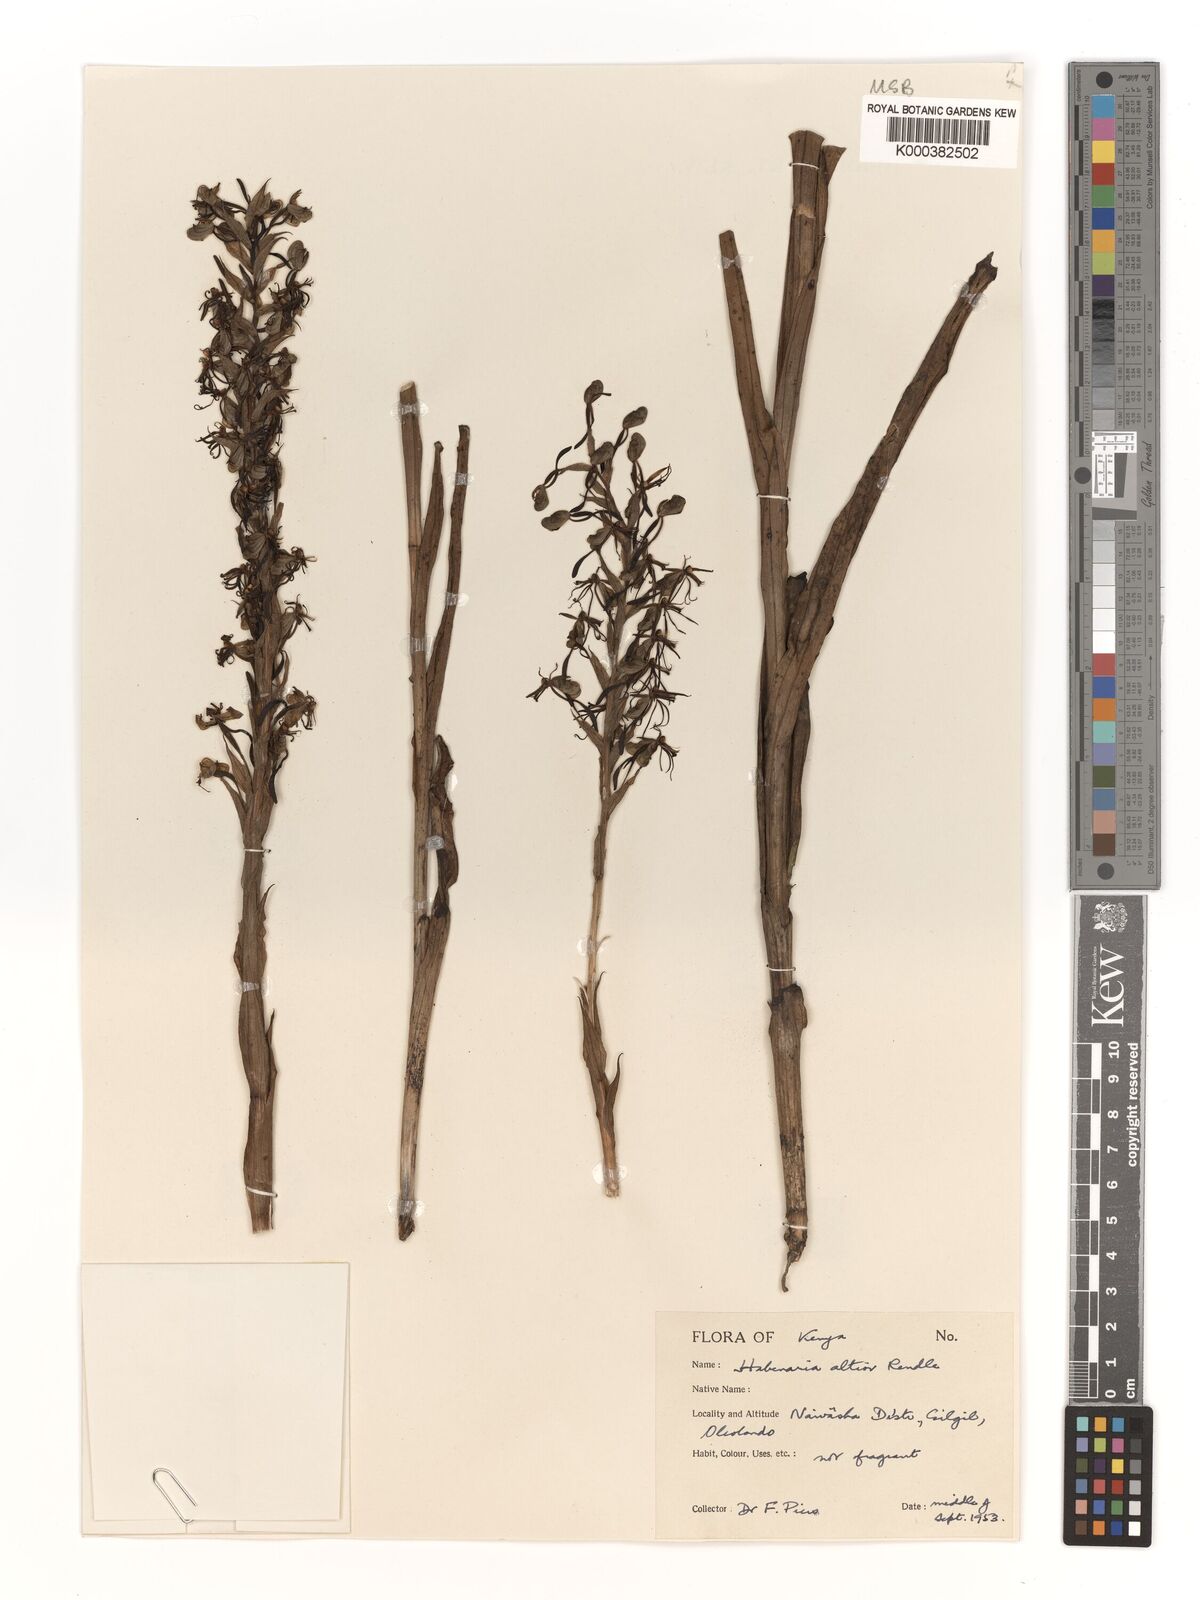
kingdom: Plantae
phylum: Tracheophyta
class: Liliopsida
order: Asparagales
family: Orchidaceae
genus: Habenaria
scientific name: Habenaria altior
